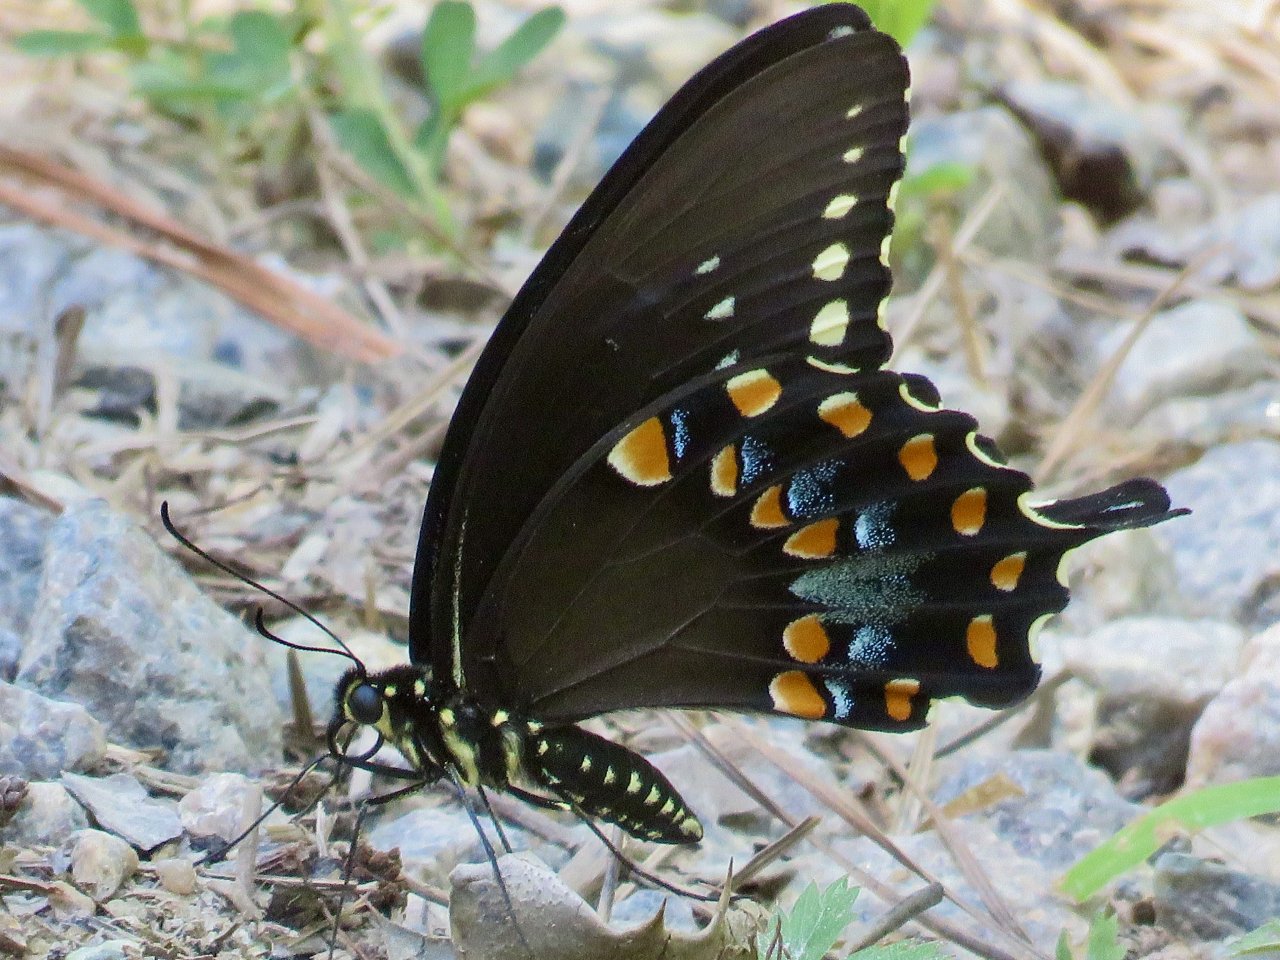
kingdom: Animalia
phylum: Arthropoda
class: Insecta
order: Lepidoptera
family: Papilionidae
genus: Pterourus
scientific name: Pterourus troilus
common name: Spicebush Swallowtail
